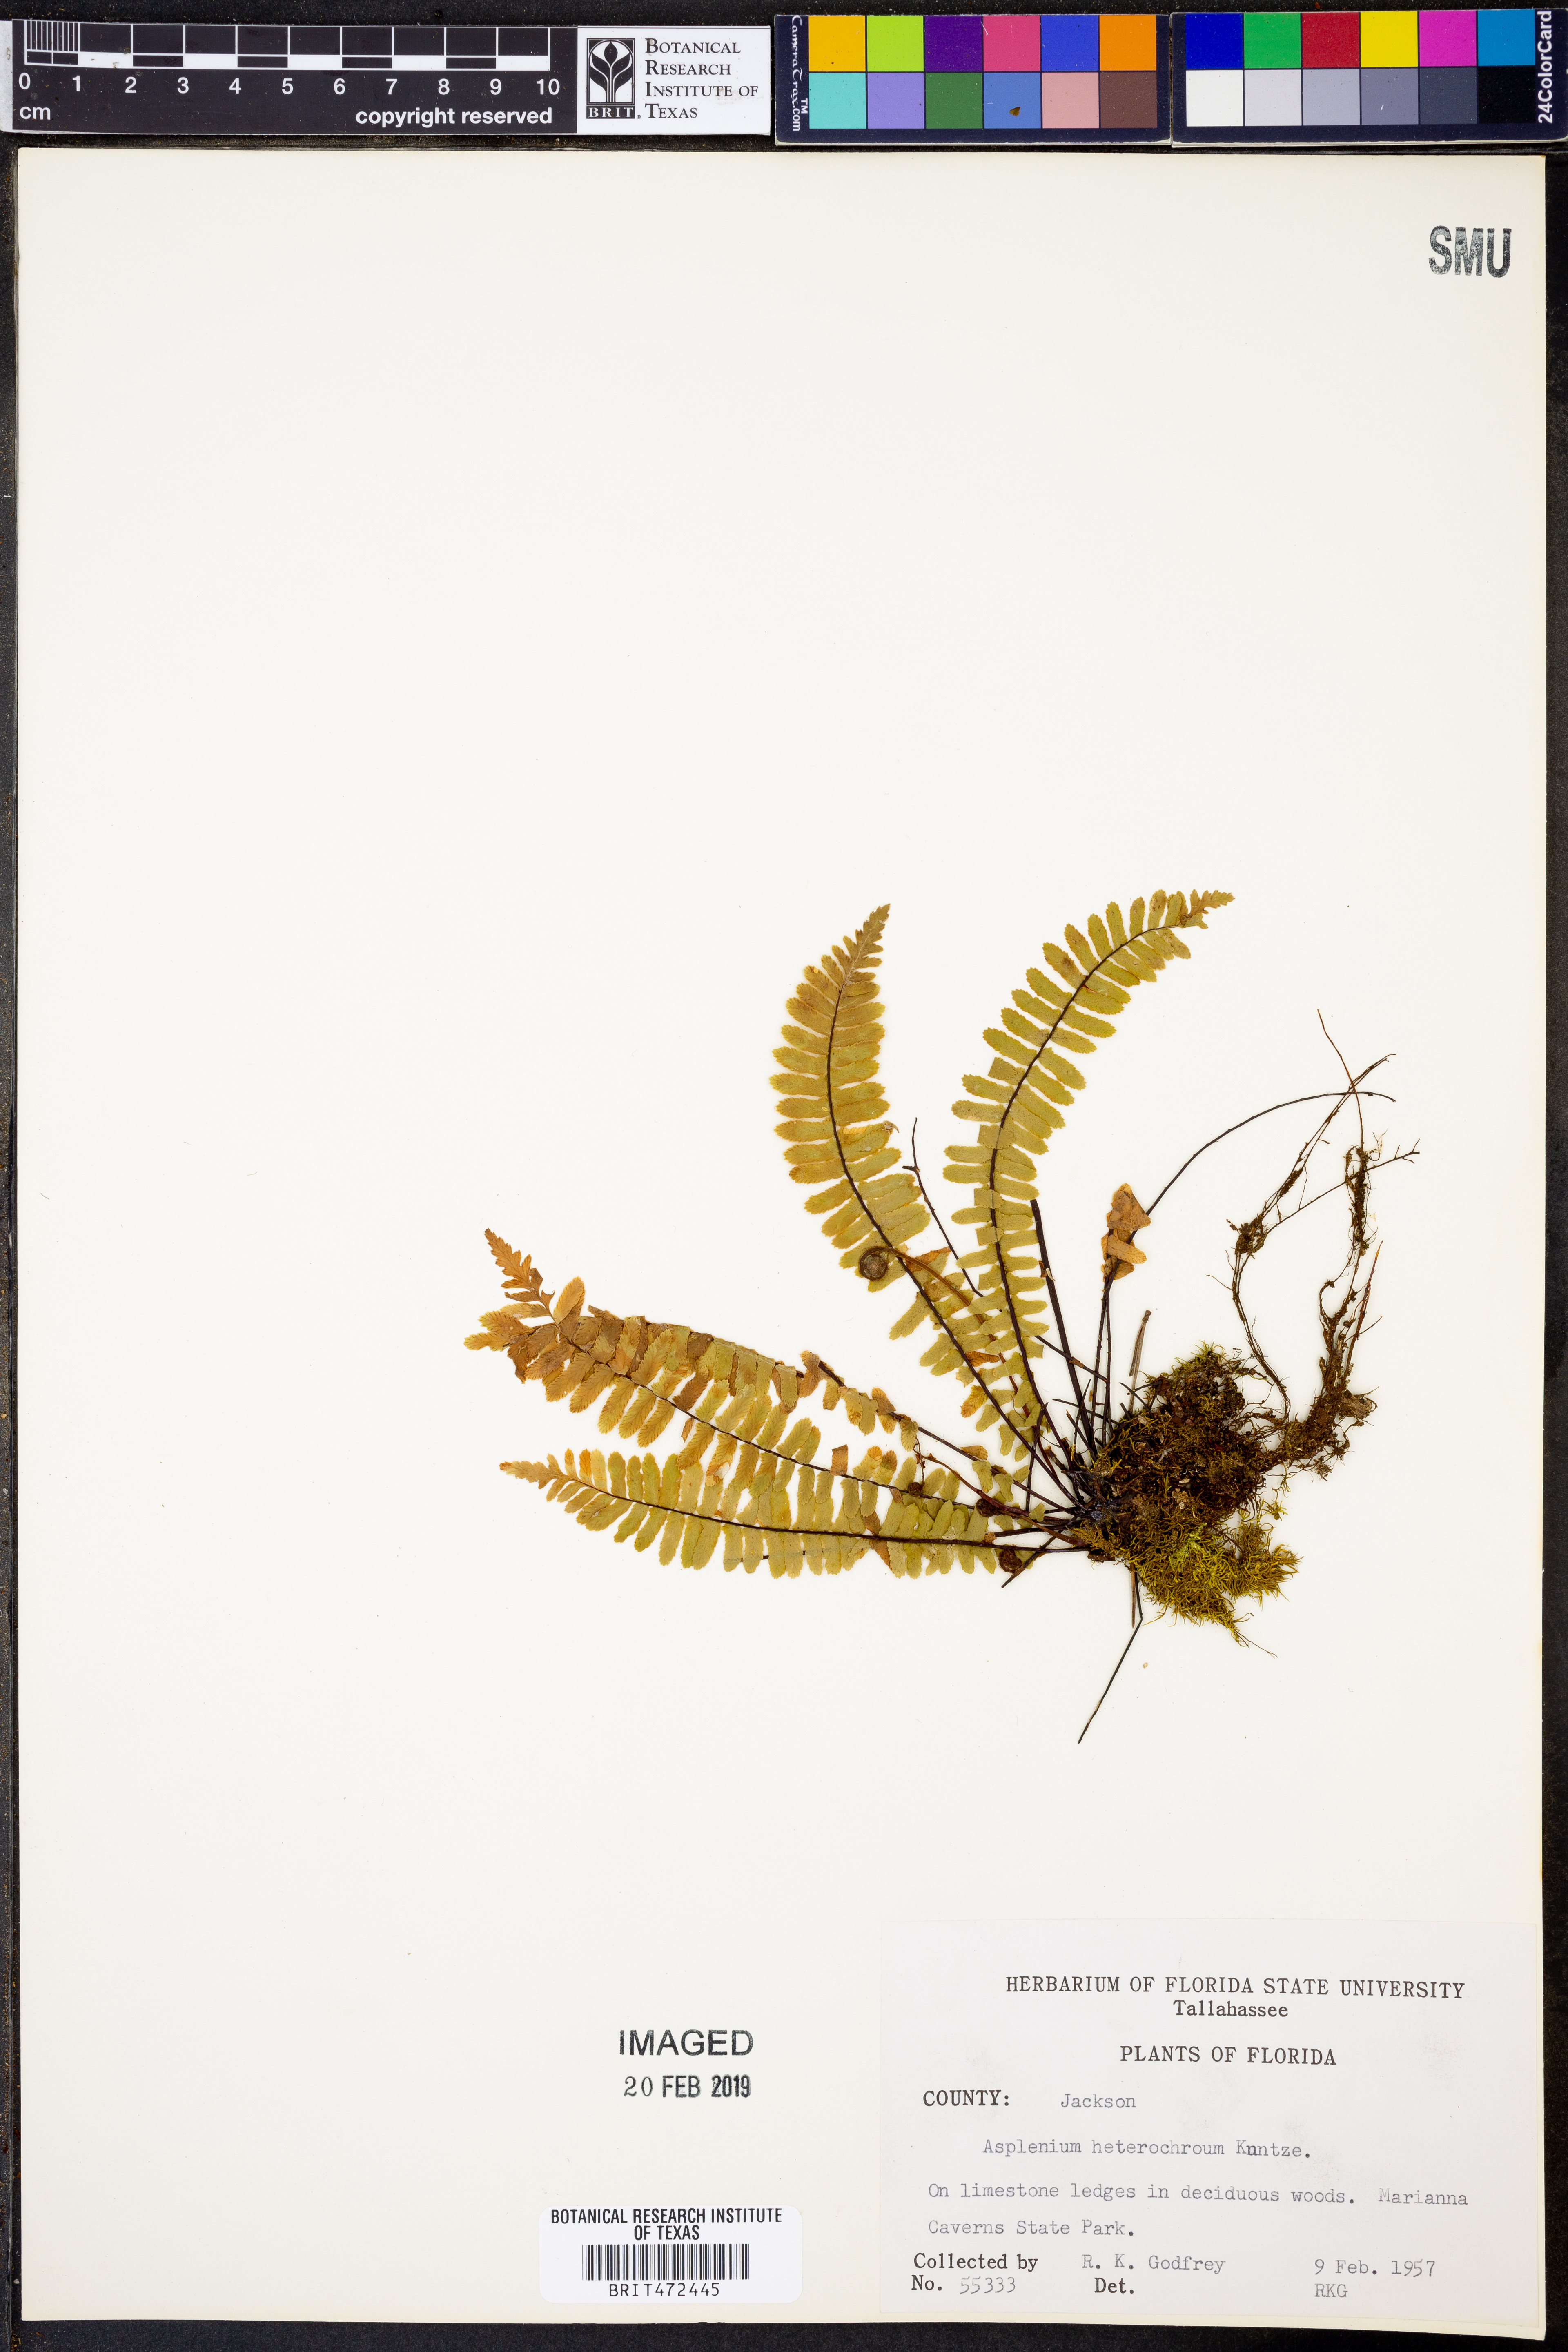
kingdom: Plantae
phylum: Tracheophyta
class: Polypodiopsida
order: Polypodiales
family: Aspleniaceae
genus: Asplenium
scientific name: Asplenium heterochroum
